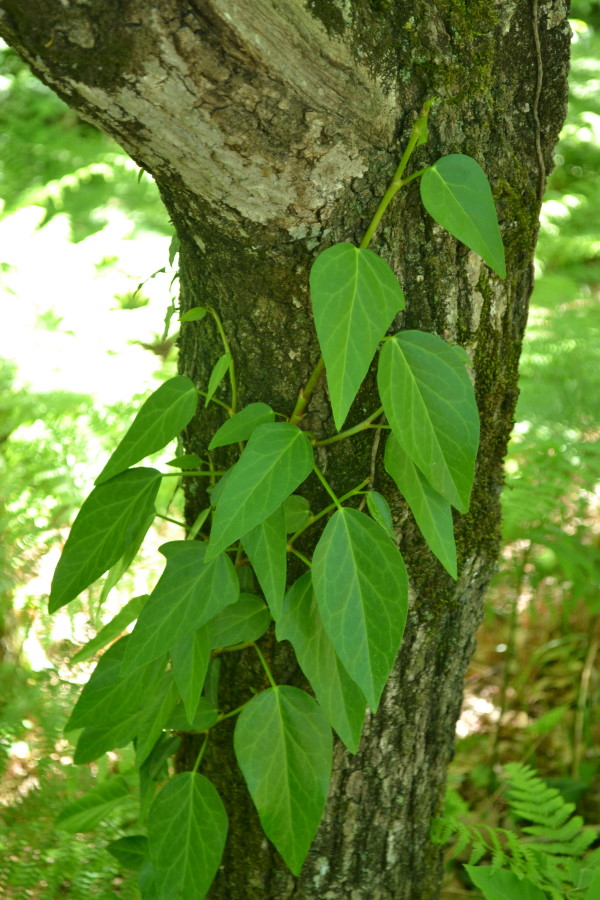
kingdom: Plantae
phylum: Tracheophyta
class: Magnoliopsida
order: Apiales
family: Araliaceae
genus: Hedera
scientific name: Hedera colchica
